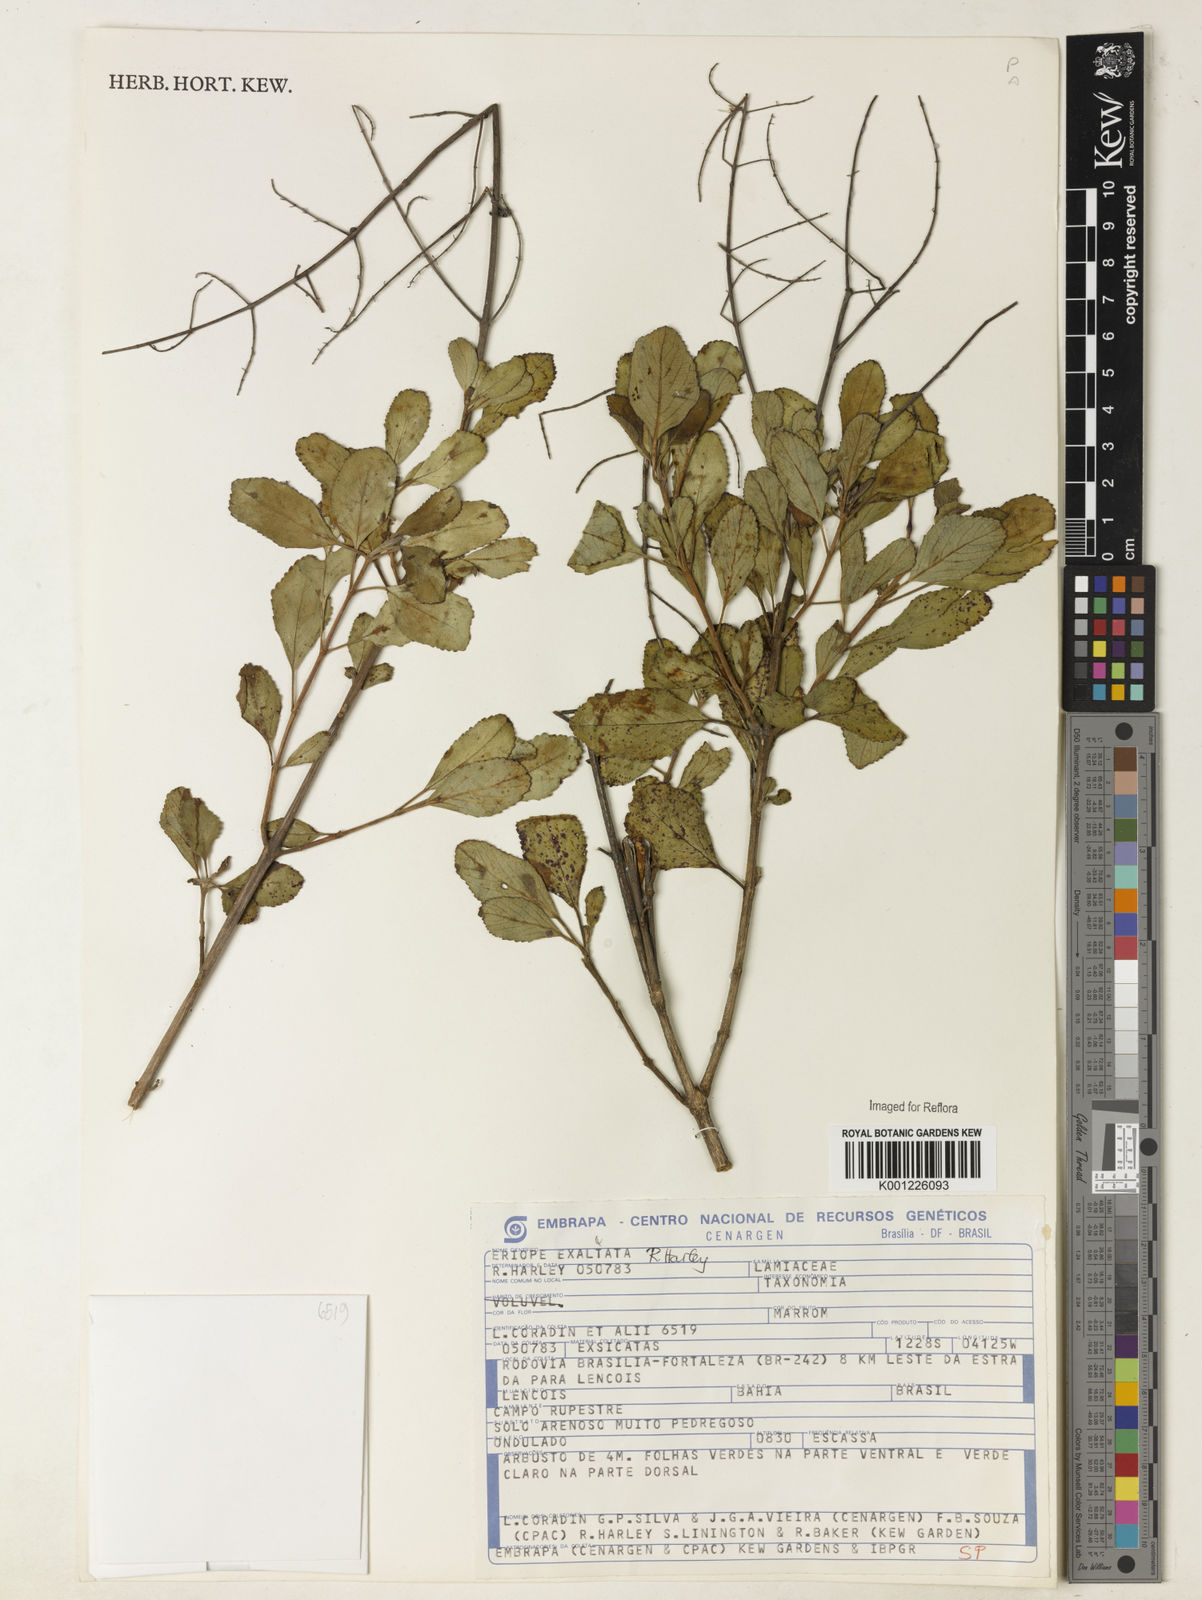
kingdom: Plantae
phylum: Tracheophyta
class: Magnoliopsida
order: Lamiales
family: Lamiaceae
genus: Eriope
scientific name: Eriope exaltata
